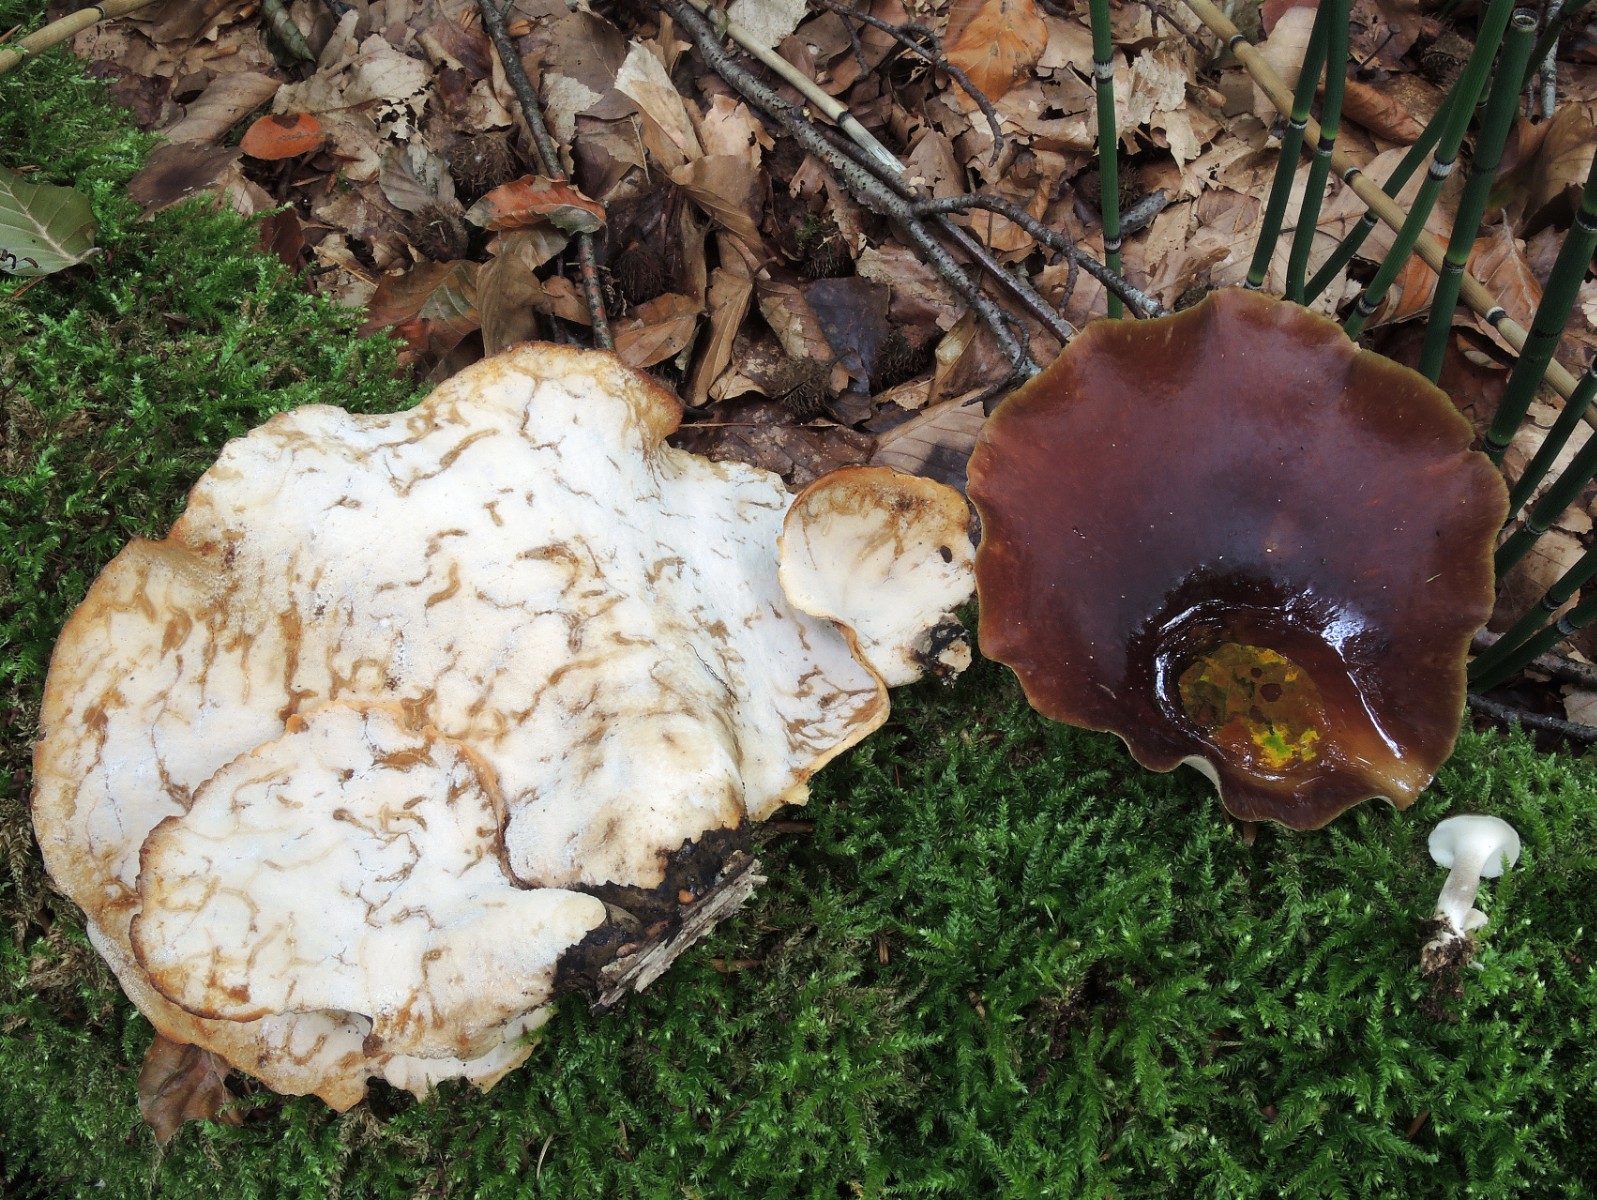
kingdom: Fungi
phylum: Basidiomycota
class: Agaricomycetes
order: Polyporales
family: Polyporaceae
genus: Picipes
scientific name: Picipes badius
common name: kastaniebrun stilkporesvamp
